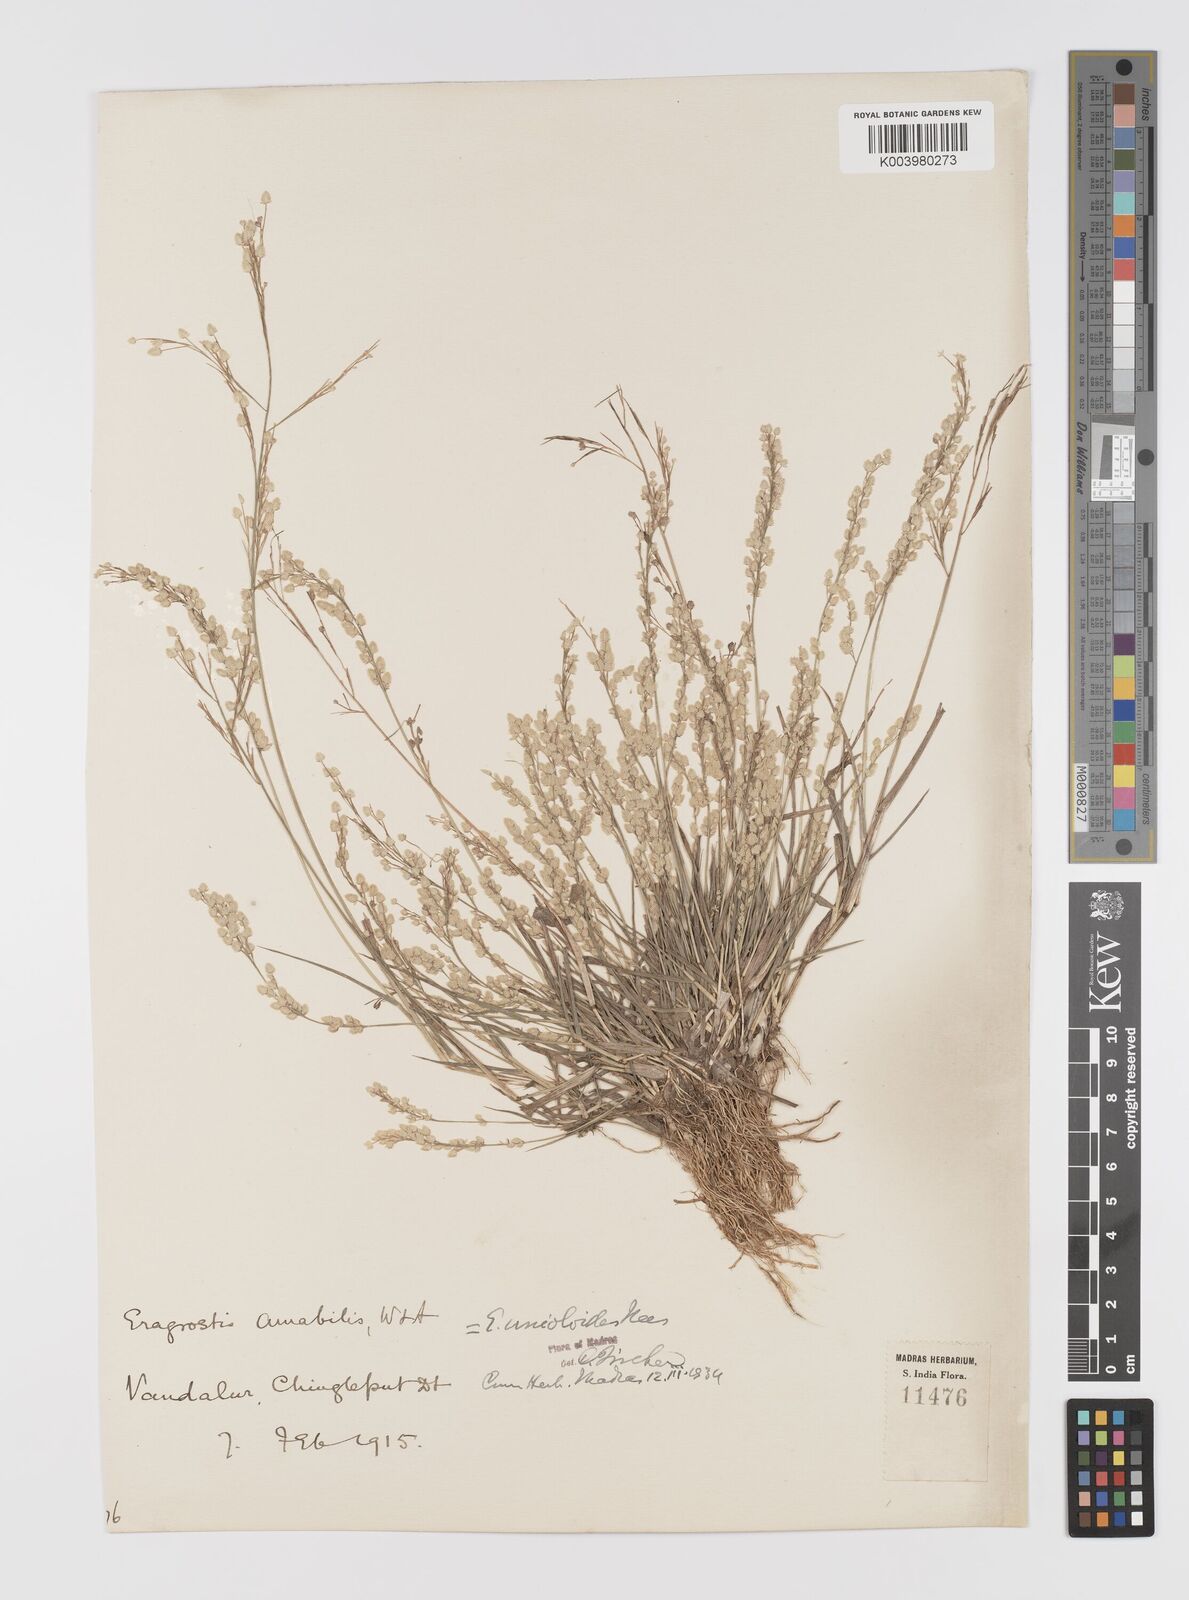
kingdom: Plantae
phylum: Tracheophyta
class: Liliopsida
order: Poales
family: Poaceae
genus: Eragrostis
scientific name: Eragrostis unioloides
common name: Chinese lovegrass
